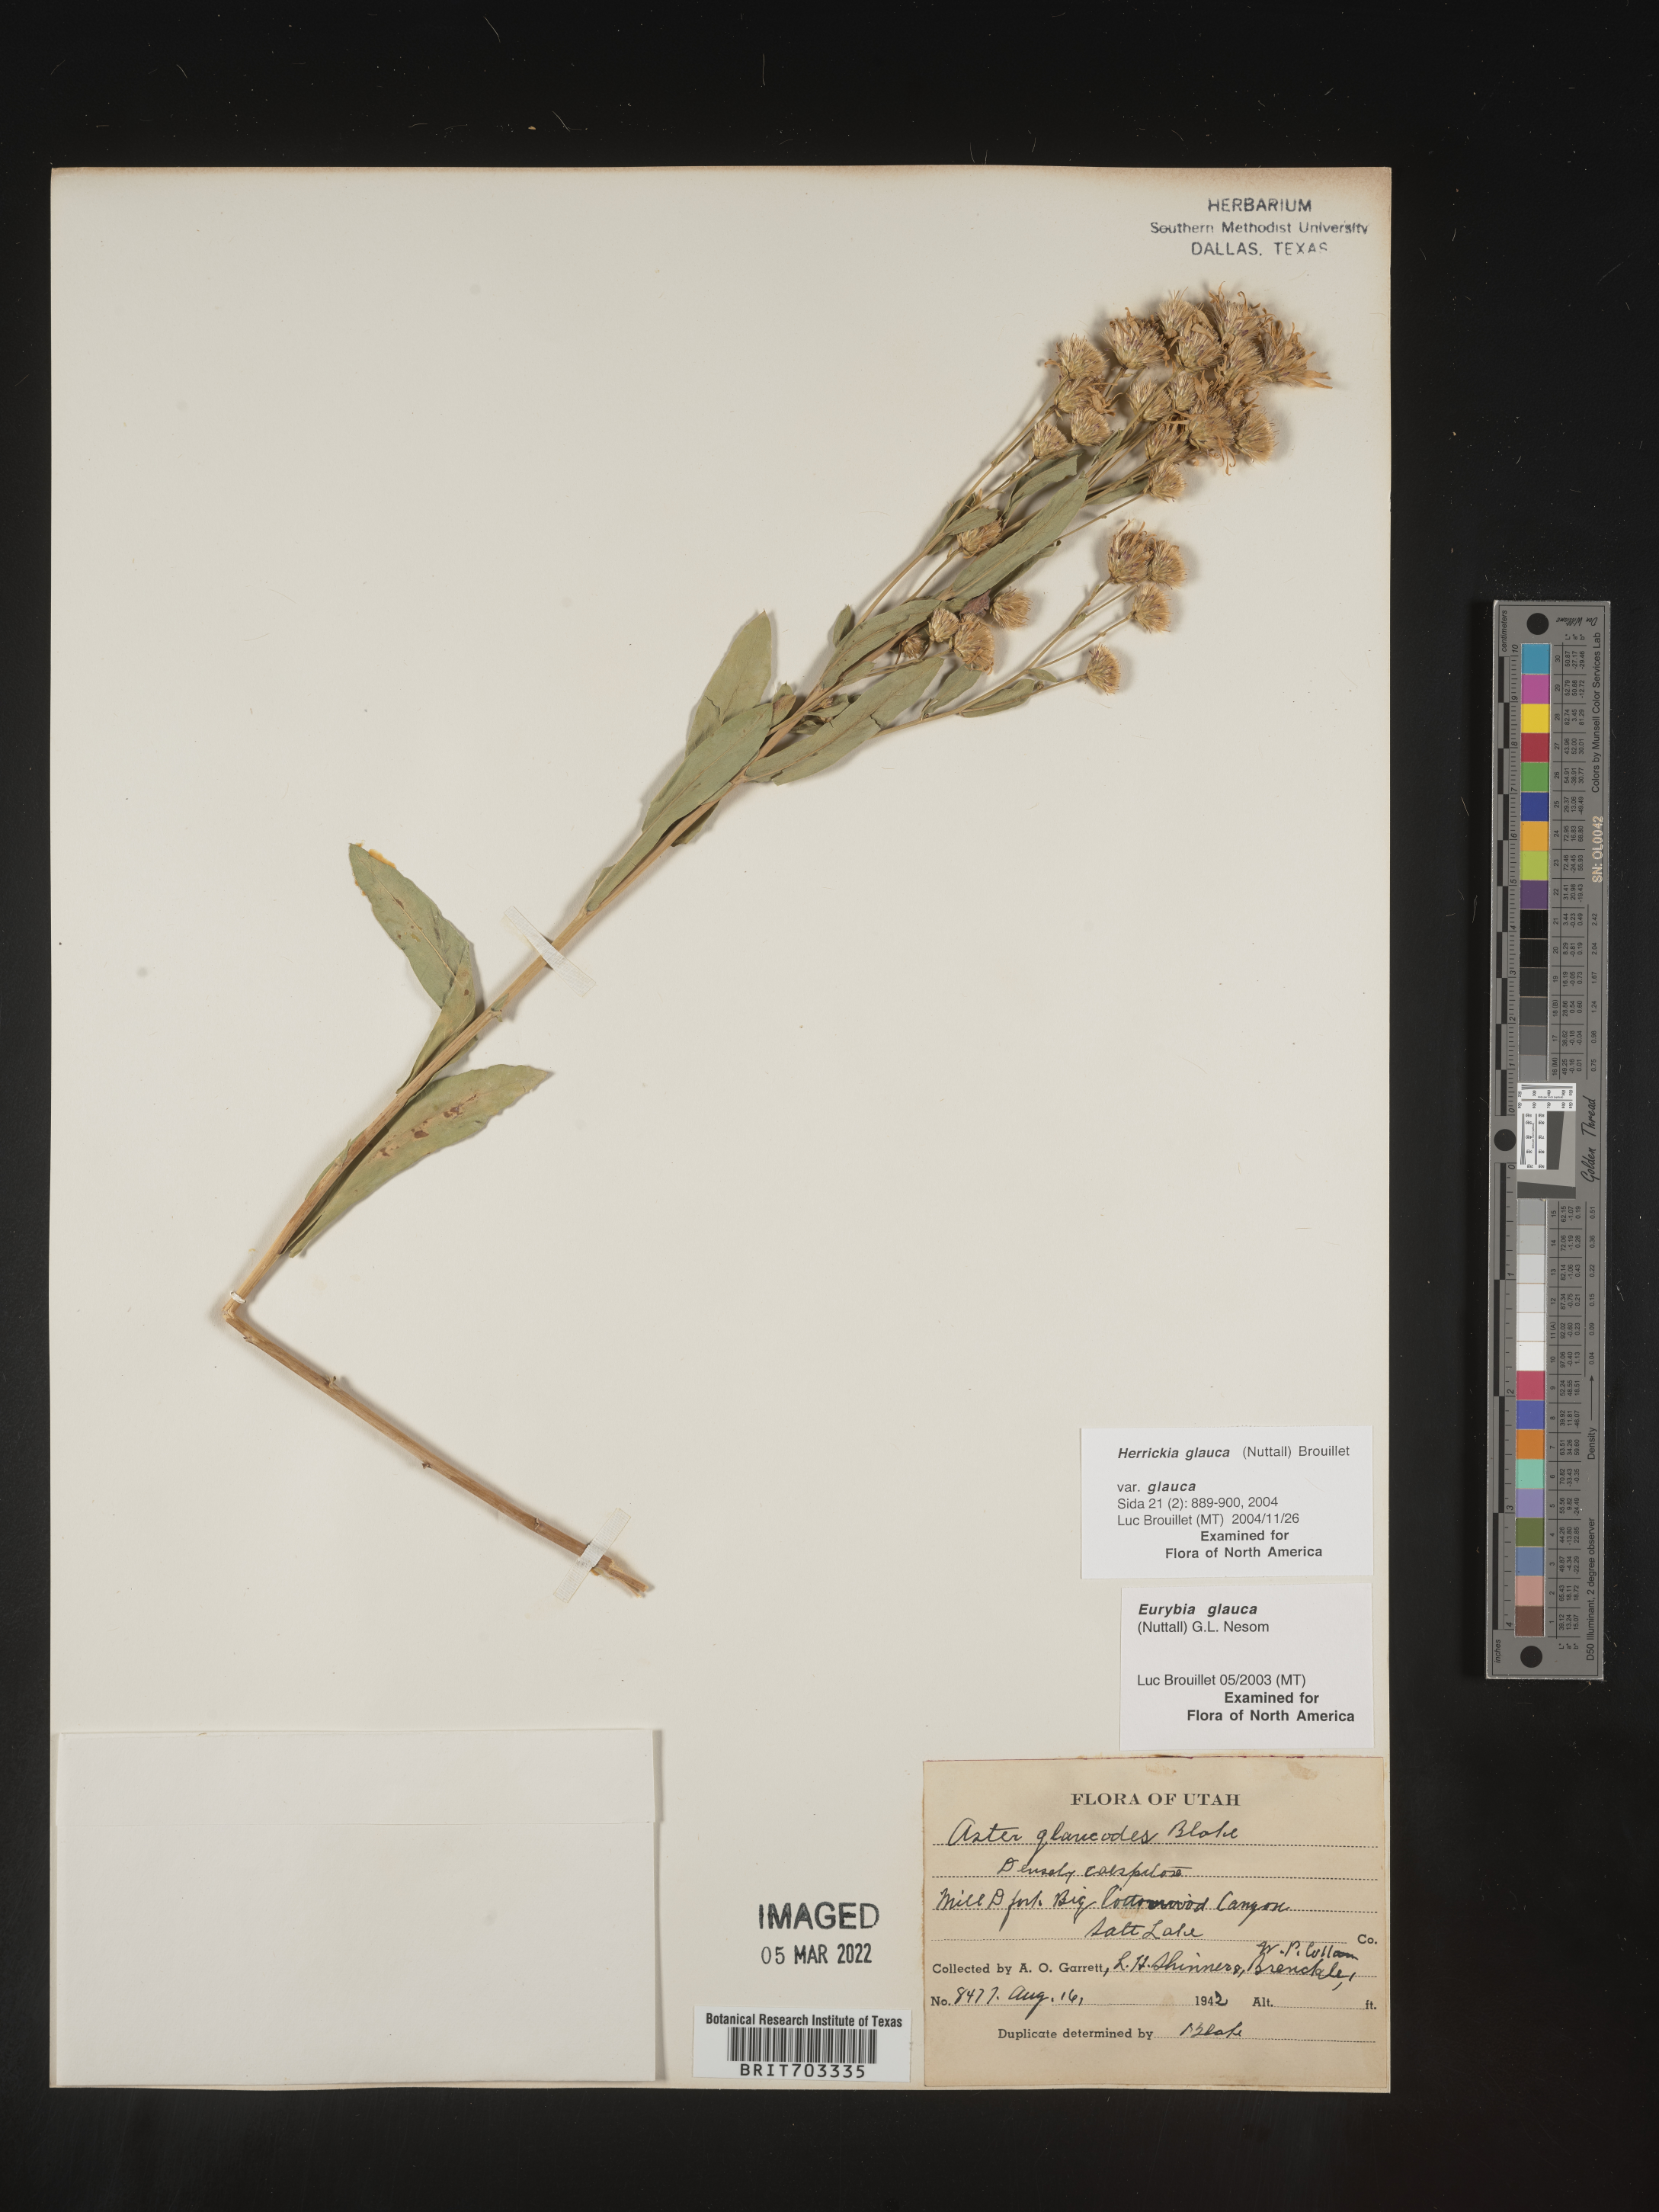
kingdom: Plantae
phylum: Tracheophyta
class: Magnoliopsida
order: Asterales
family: Asteraceae
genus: Eurybia
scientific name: Eurybia glauca
